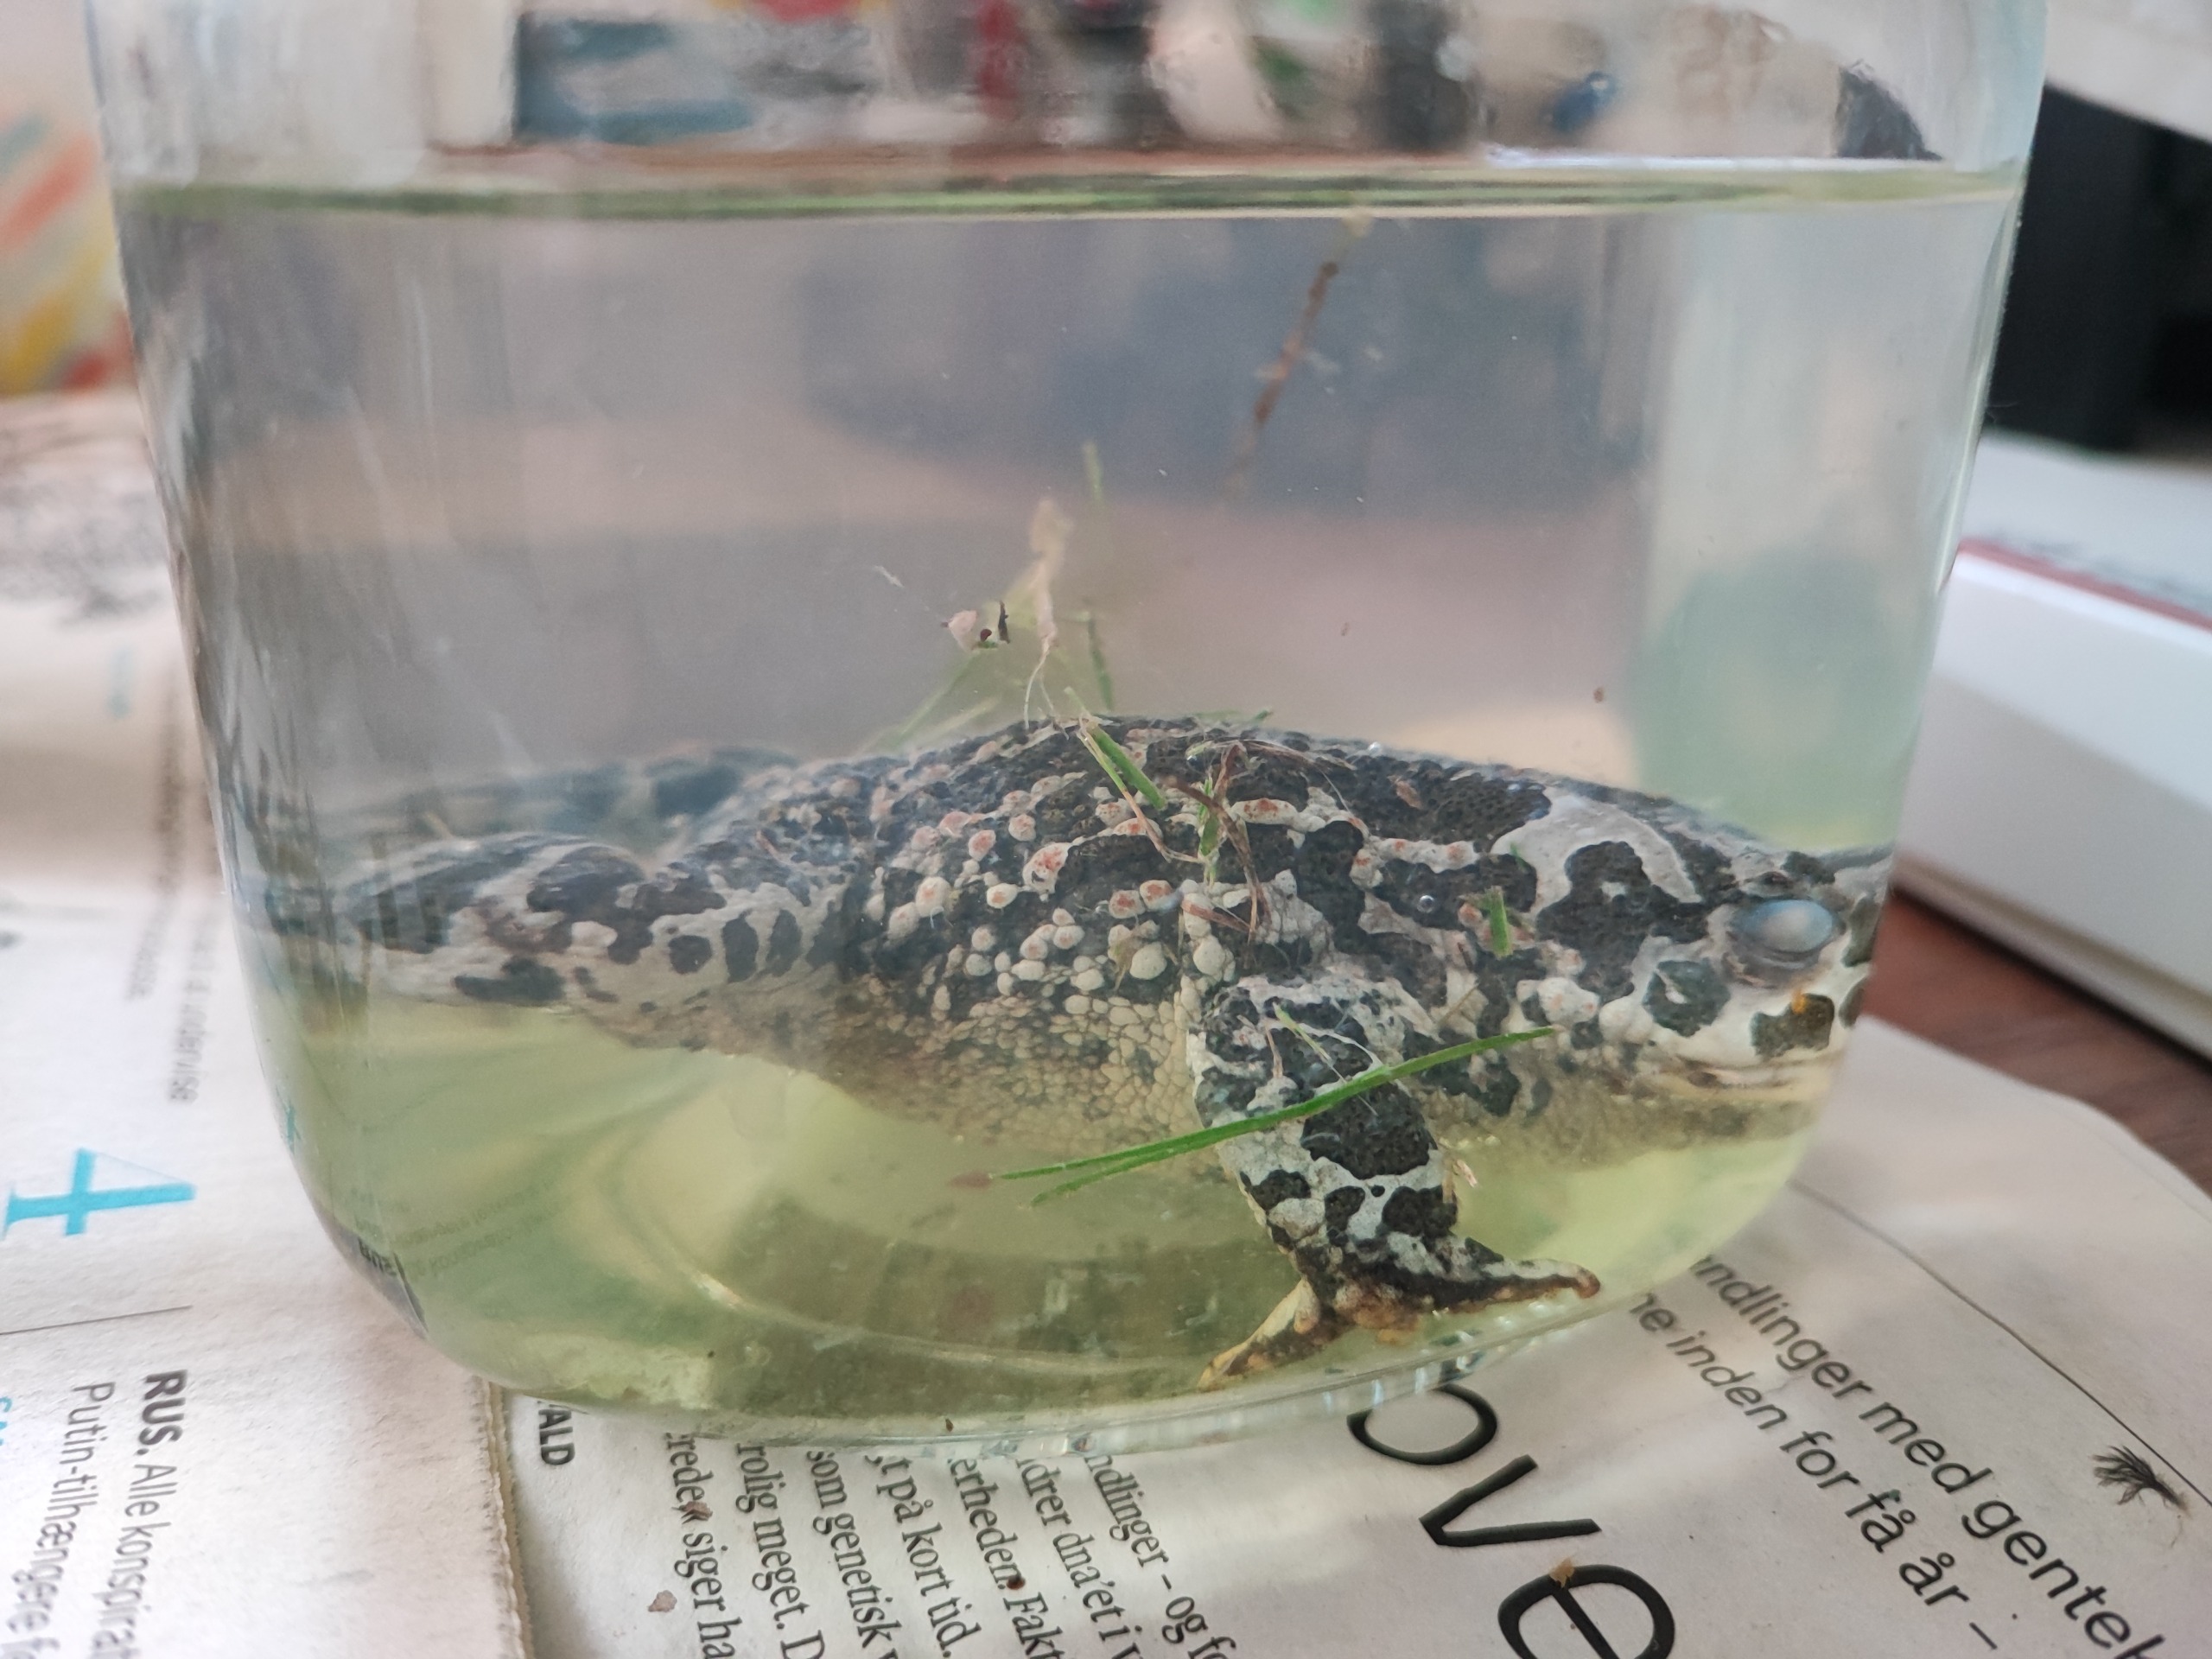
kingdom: Animalia
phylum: Chordata
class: Amphibia
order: Anura
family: Bufonidae
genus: Bufotes
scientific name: Bufotes viridis
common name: Grønbroget tudse
